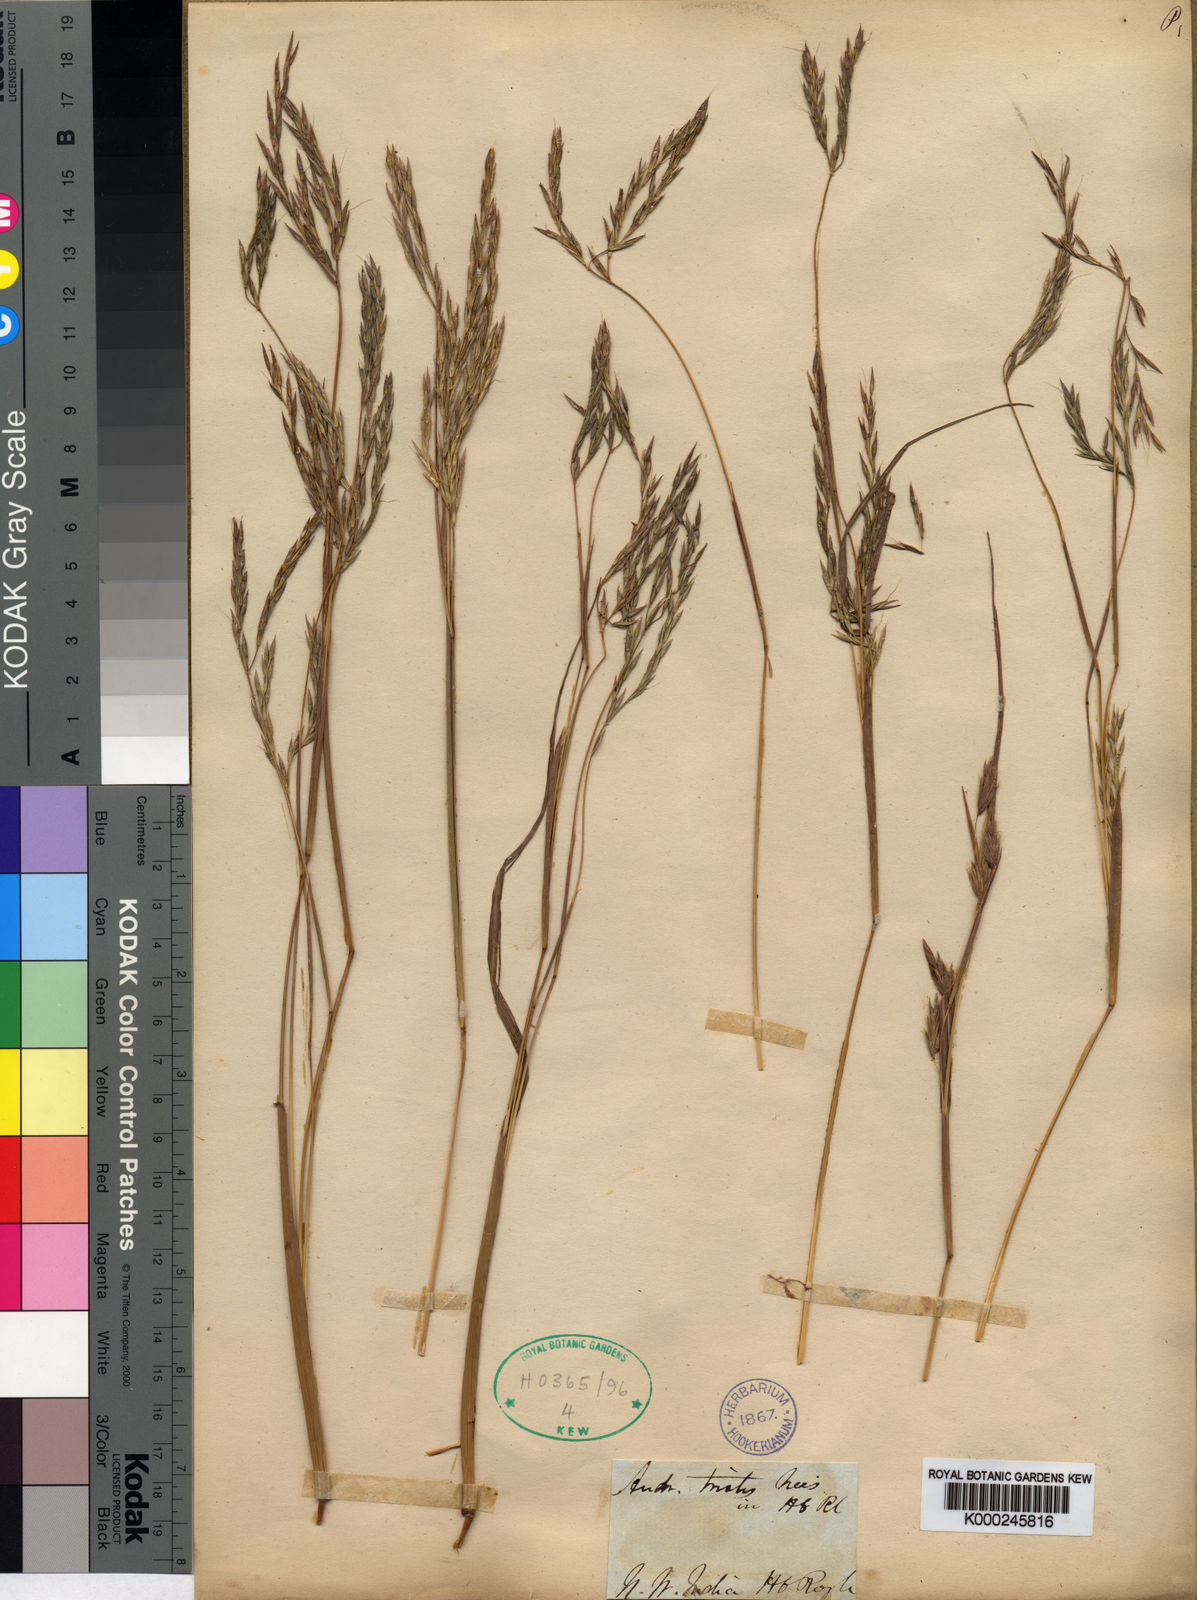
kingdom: Plantae
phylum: Tracheophyta
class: Liliopsida
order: Poales
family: Poaceae
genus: Andropogon
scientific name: Andropogon munroi
